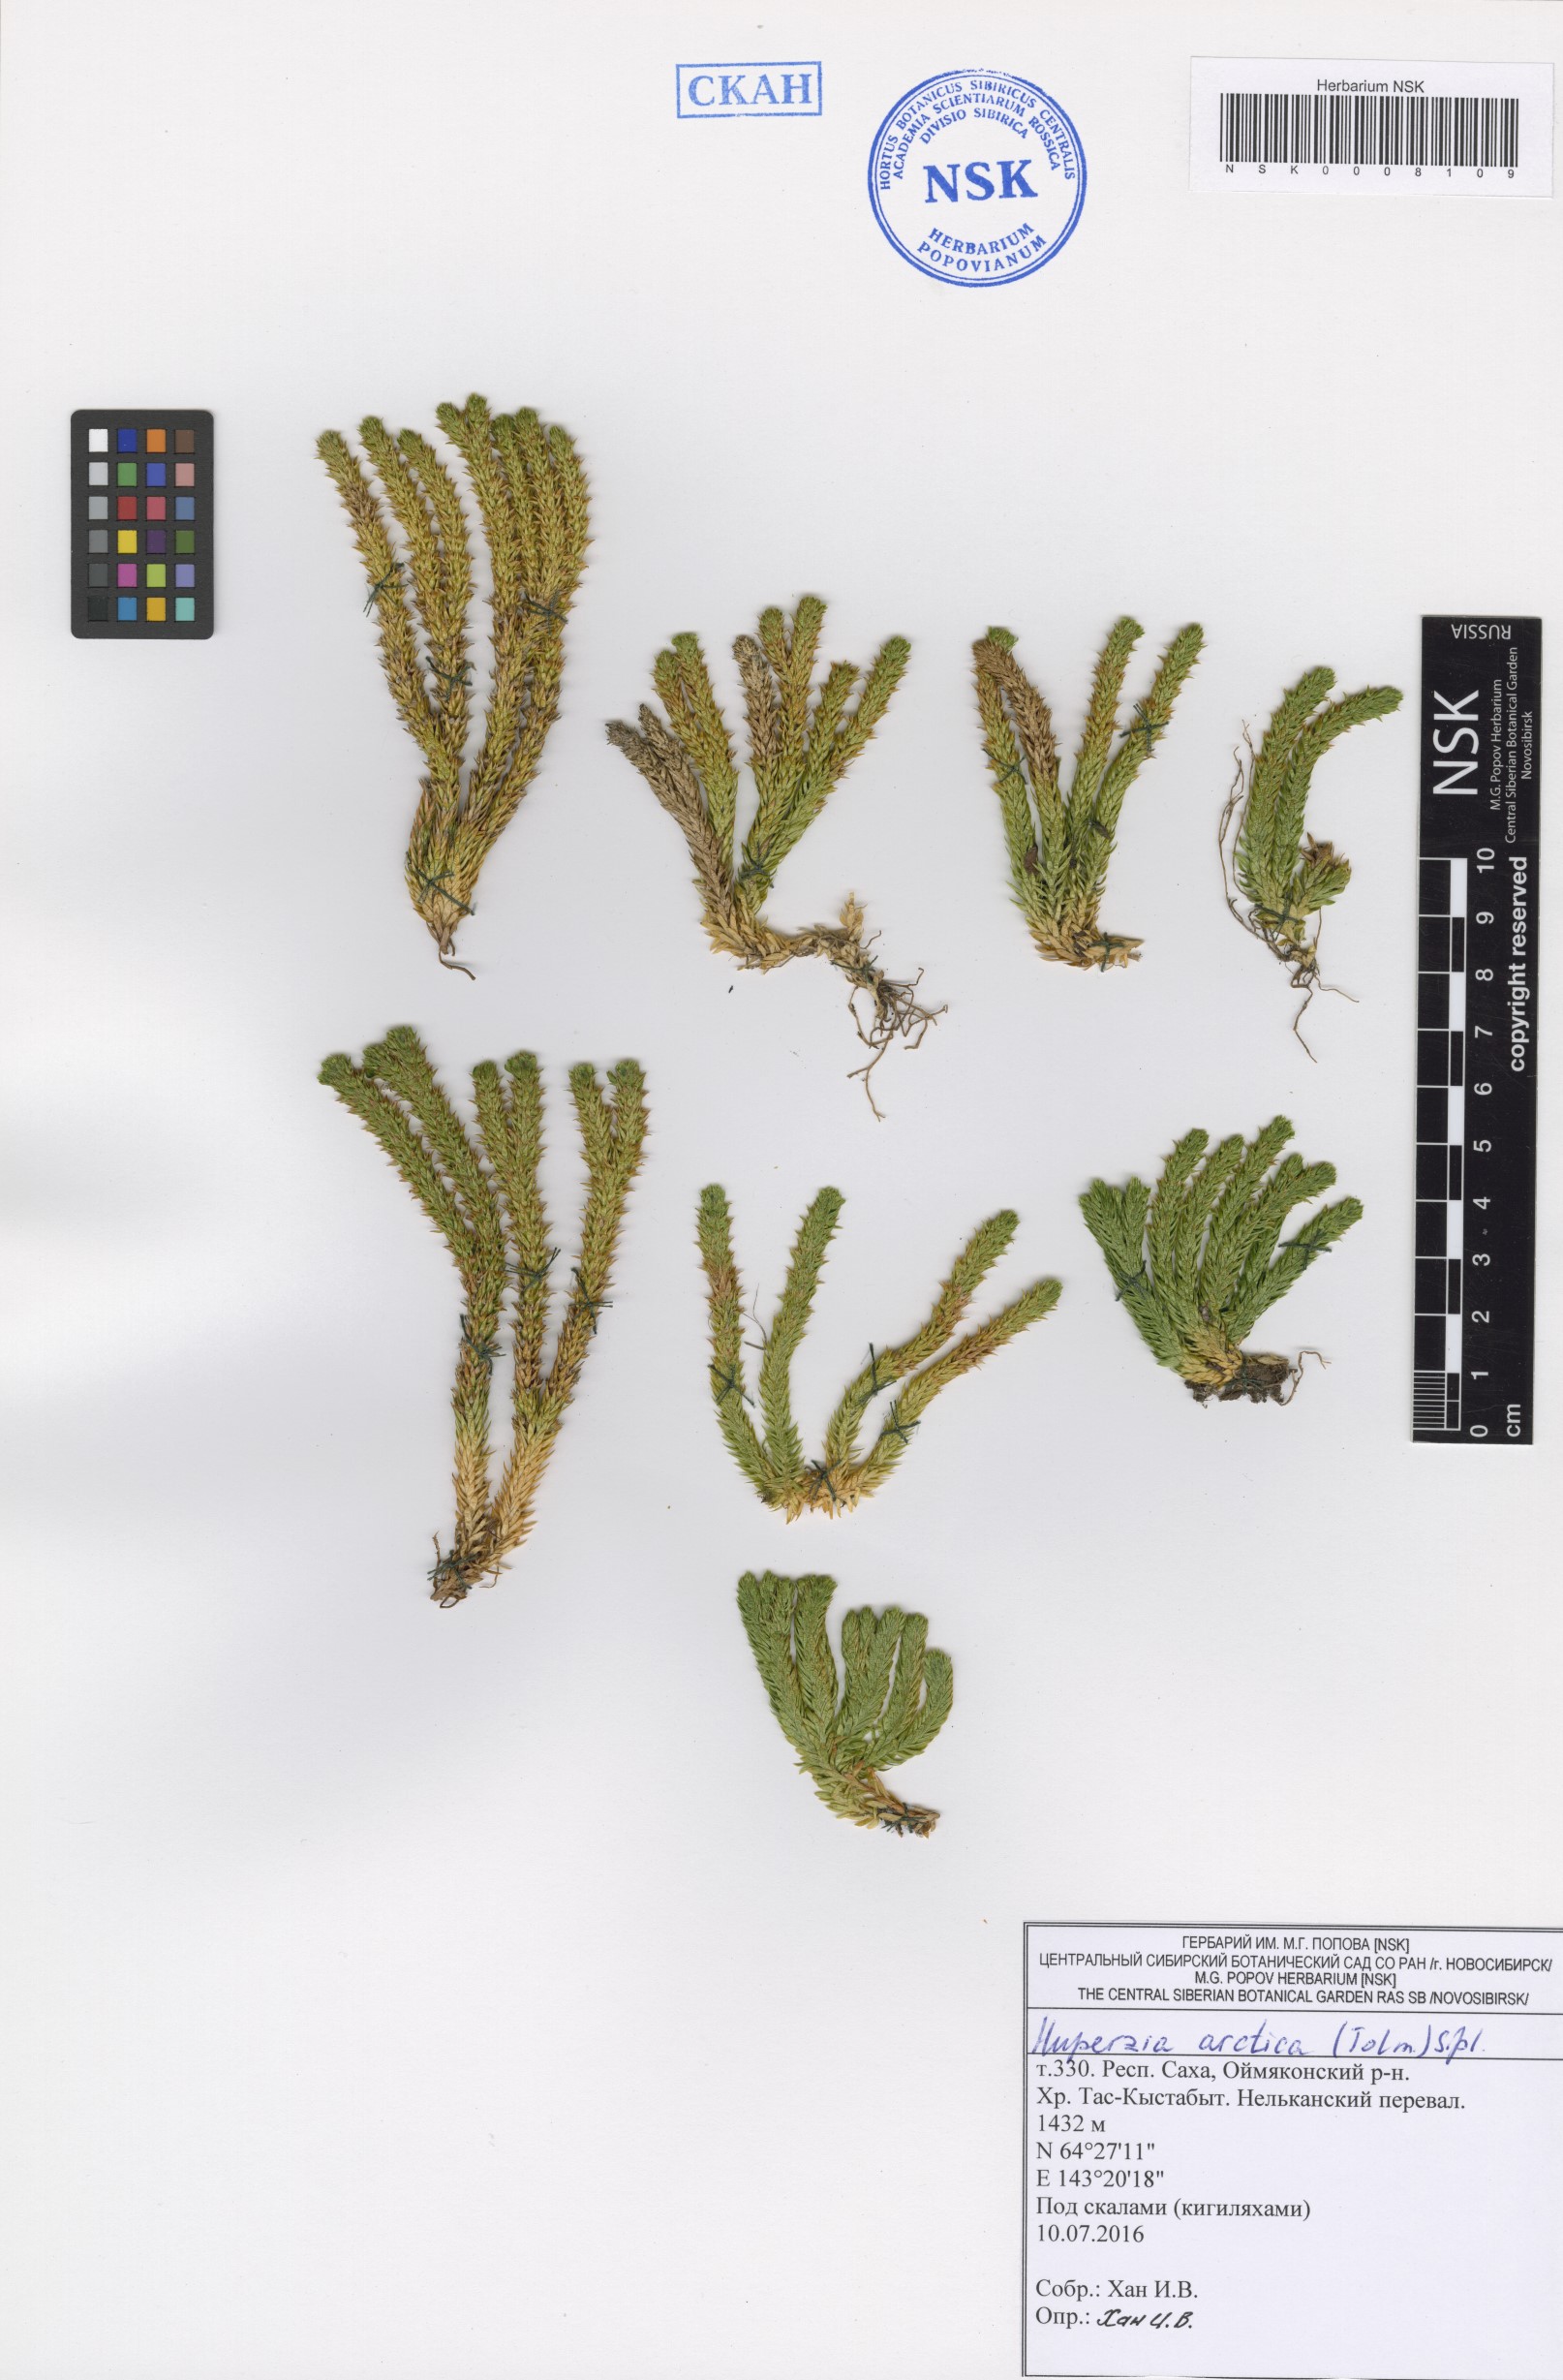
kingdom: Plantae
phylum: Tracheophyta
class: Lycopodiopsida
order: Lycopodiales
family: Lycopodiaceae
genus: Huperzia
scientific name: Huperzia selago
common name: Northern firmoss
